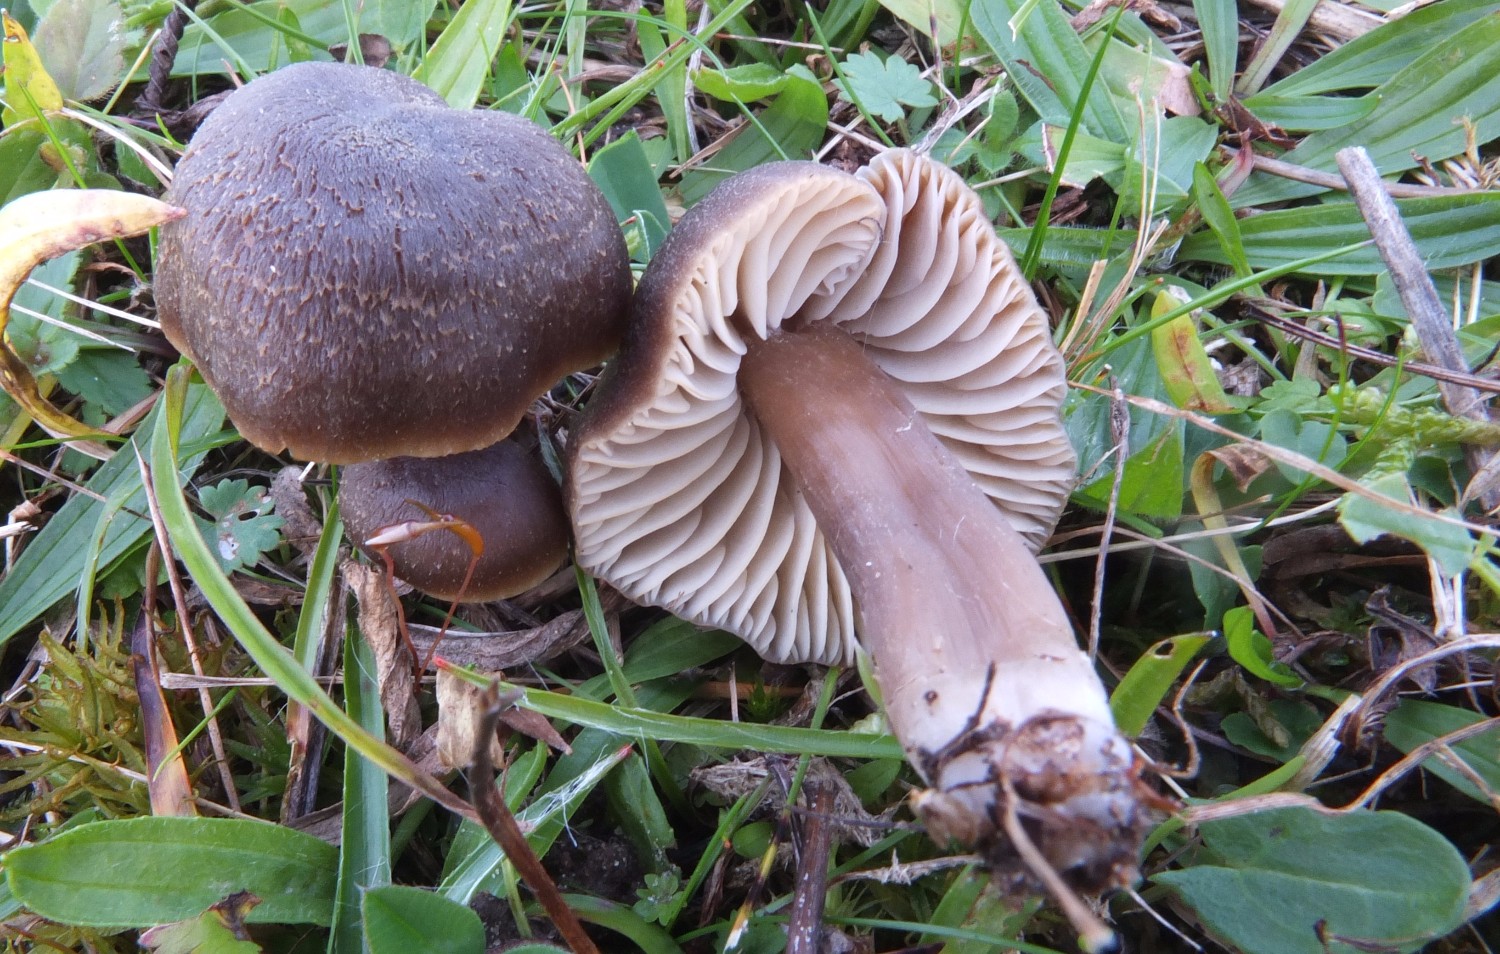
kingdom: Fungi
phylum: Basidiomycota
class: Agaricomycetes
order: Agaricales
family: Hygrophoraceae
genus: Neohygrocybe
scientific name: Neohygrocybe nitrata
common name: stinkende vokshat
